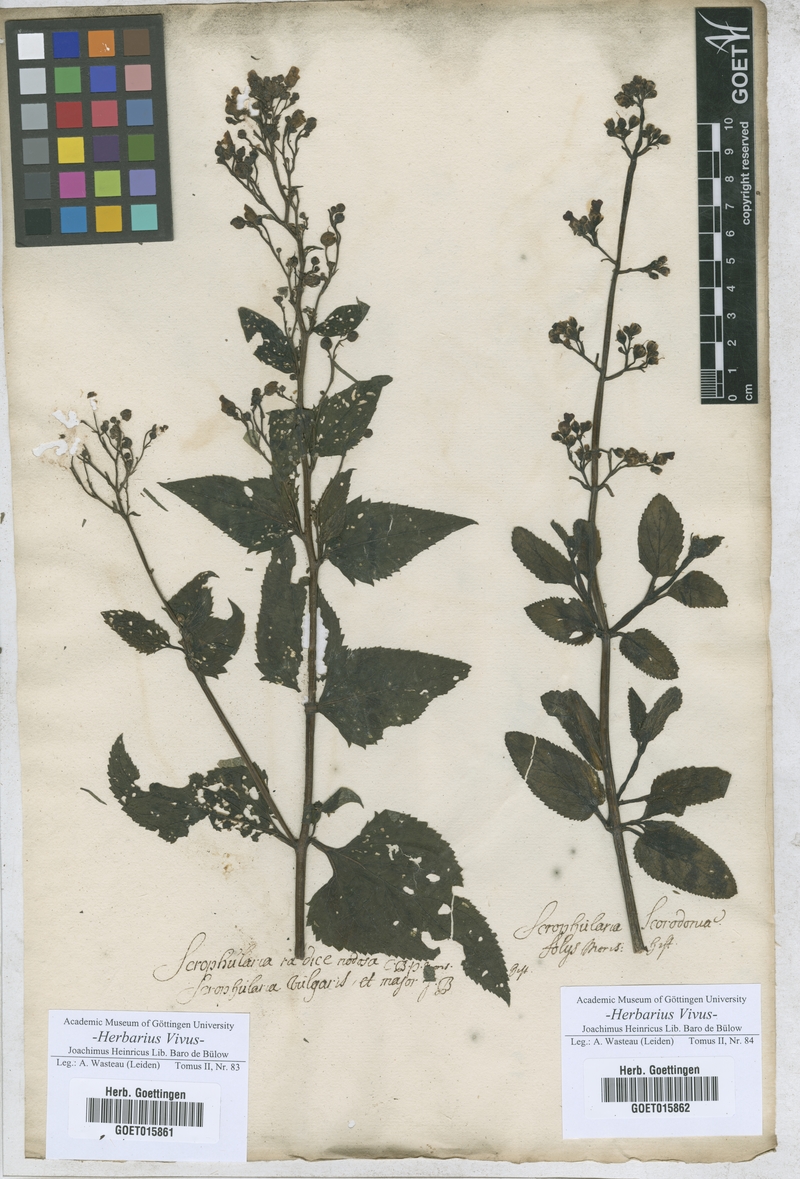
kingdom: Plantae
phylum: Tracheophyta
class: Magnoliopsida
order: Lamiales
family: Scrophulariaceae
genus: Scrophularia
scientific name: Scrophularia nodosa
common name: Common figwort
